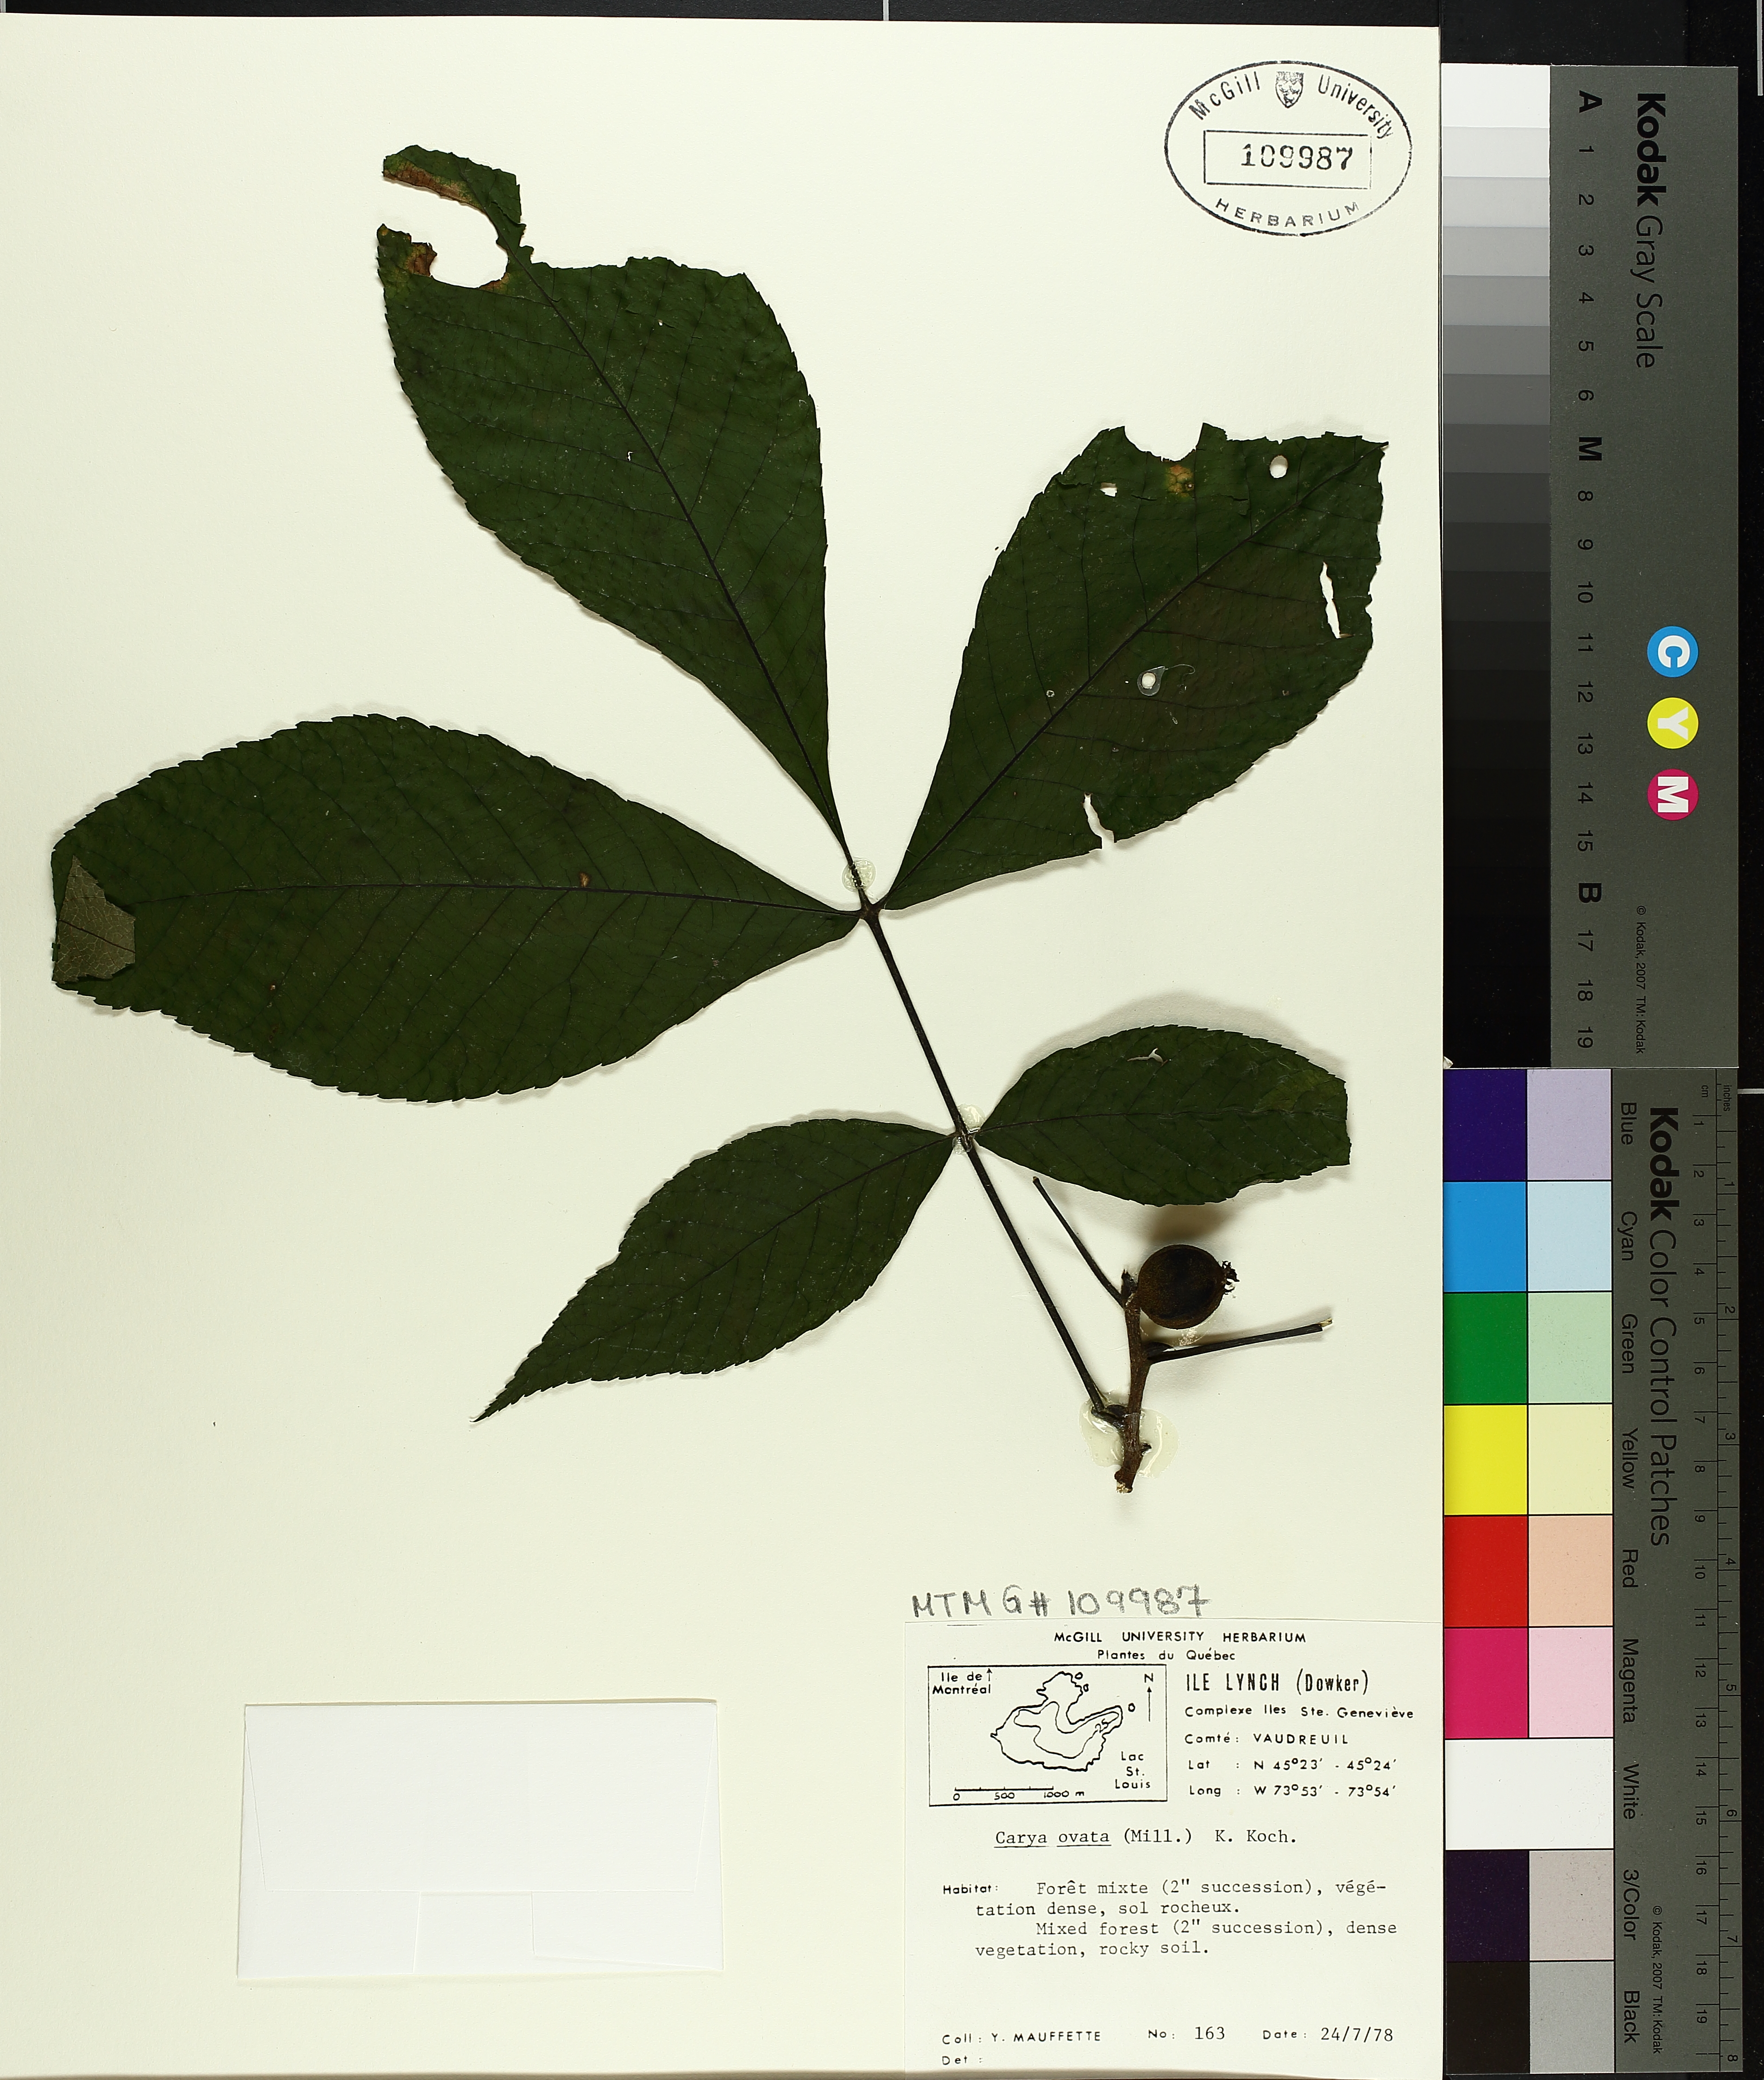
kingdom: Plantae
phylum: Tracheophyta
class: Magnoliopsida
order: Fagales
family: Juglandaceae
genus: Carya
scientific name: Carya ovata
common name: Shagbark hickory
